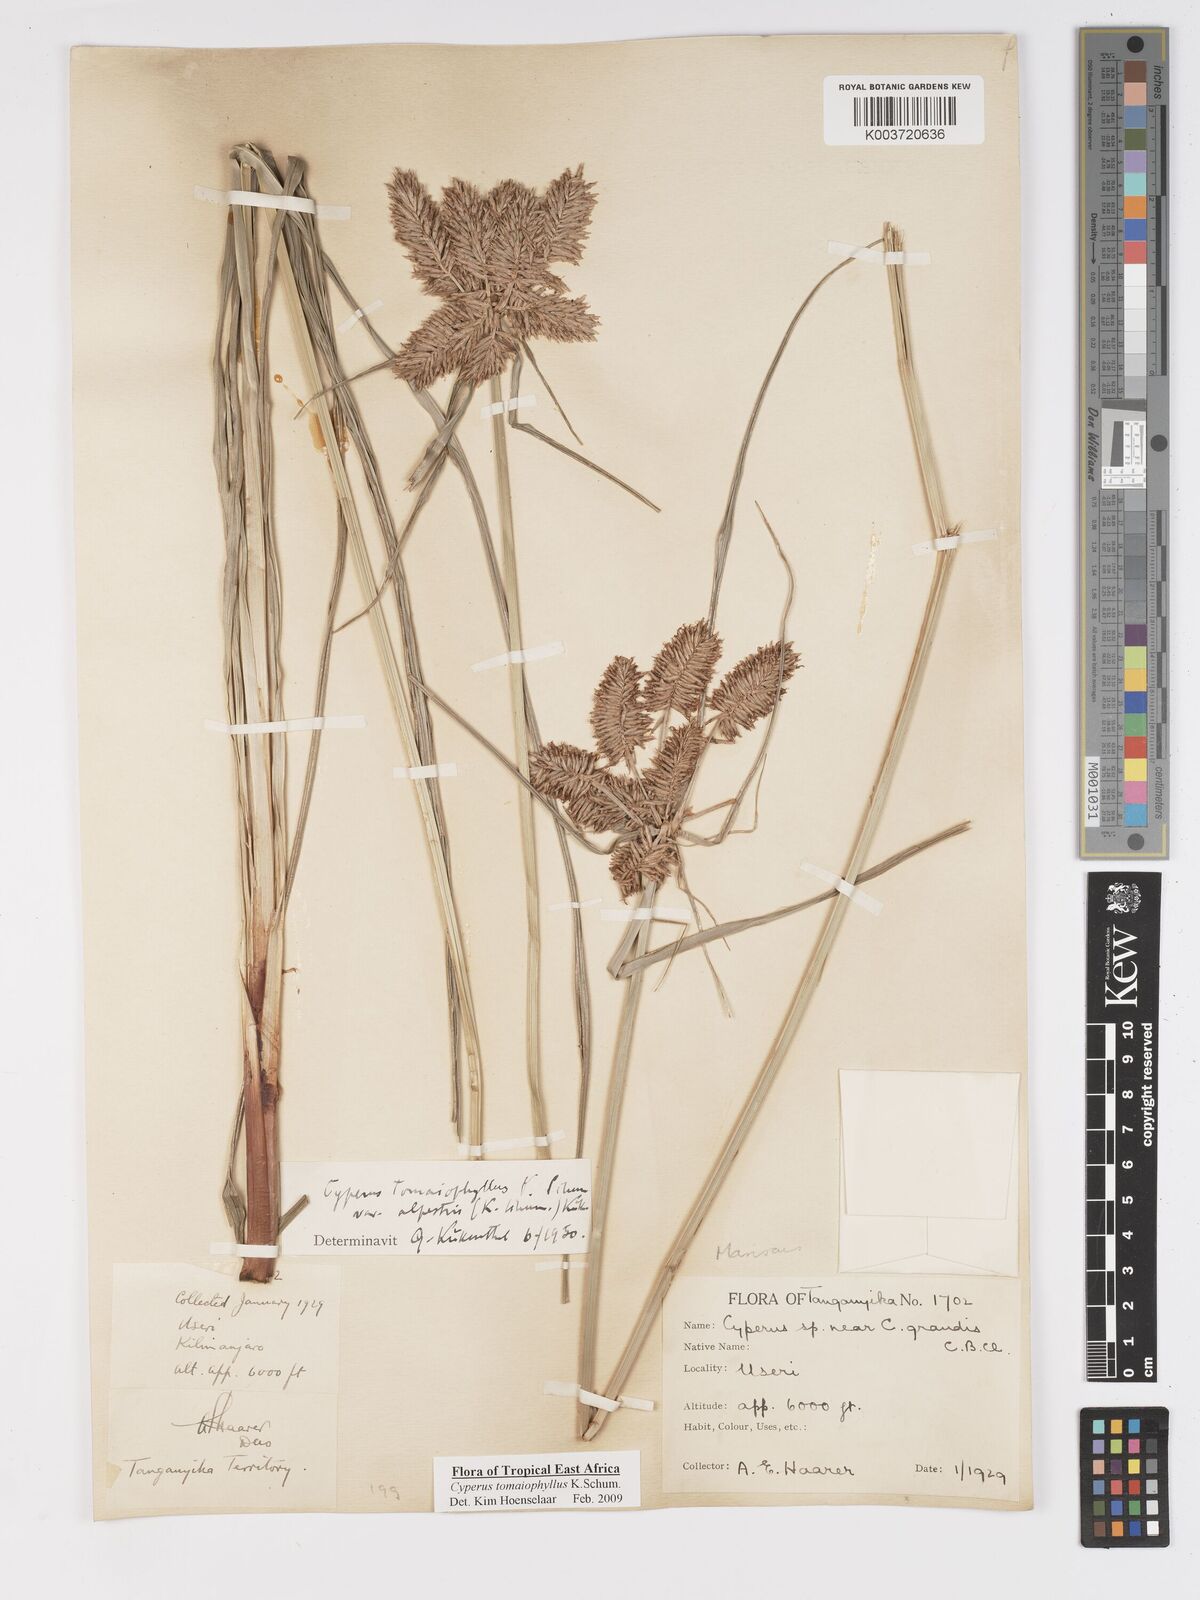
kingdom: Plantae
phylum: Tracheophyta
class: Liliopsida
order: Poales
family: Cyperaceae
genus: Cyperus
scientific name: Cyperus tomaiophyllus
